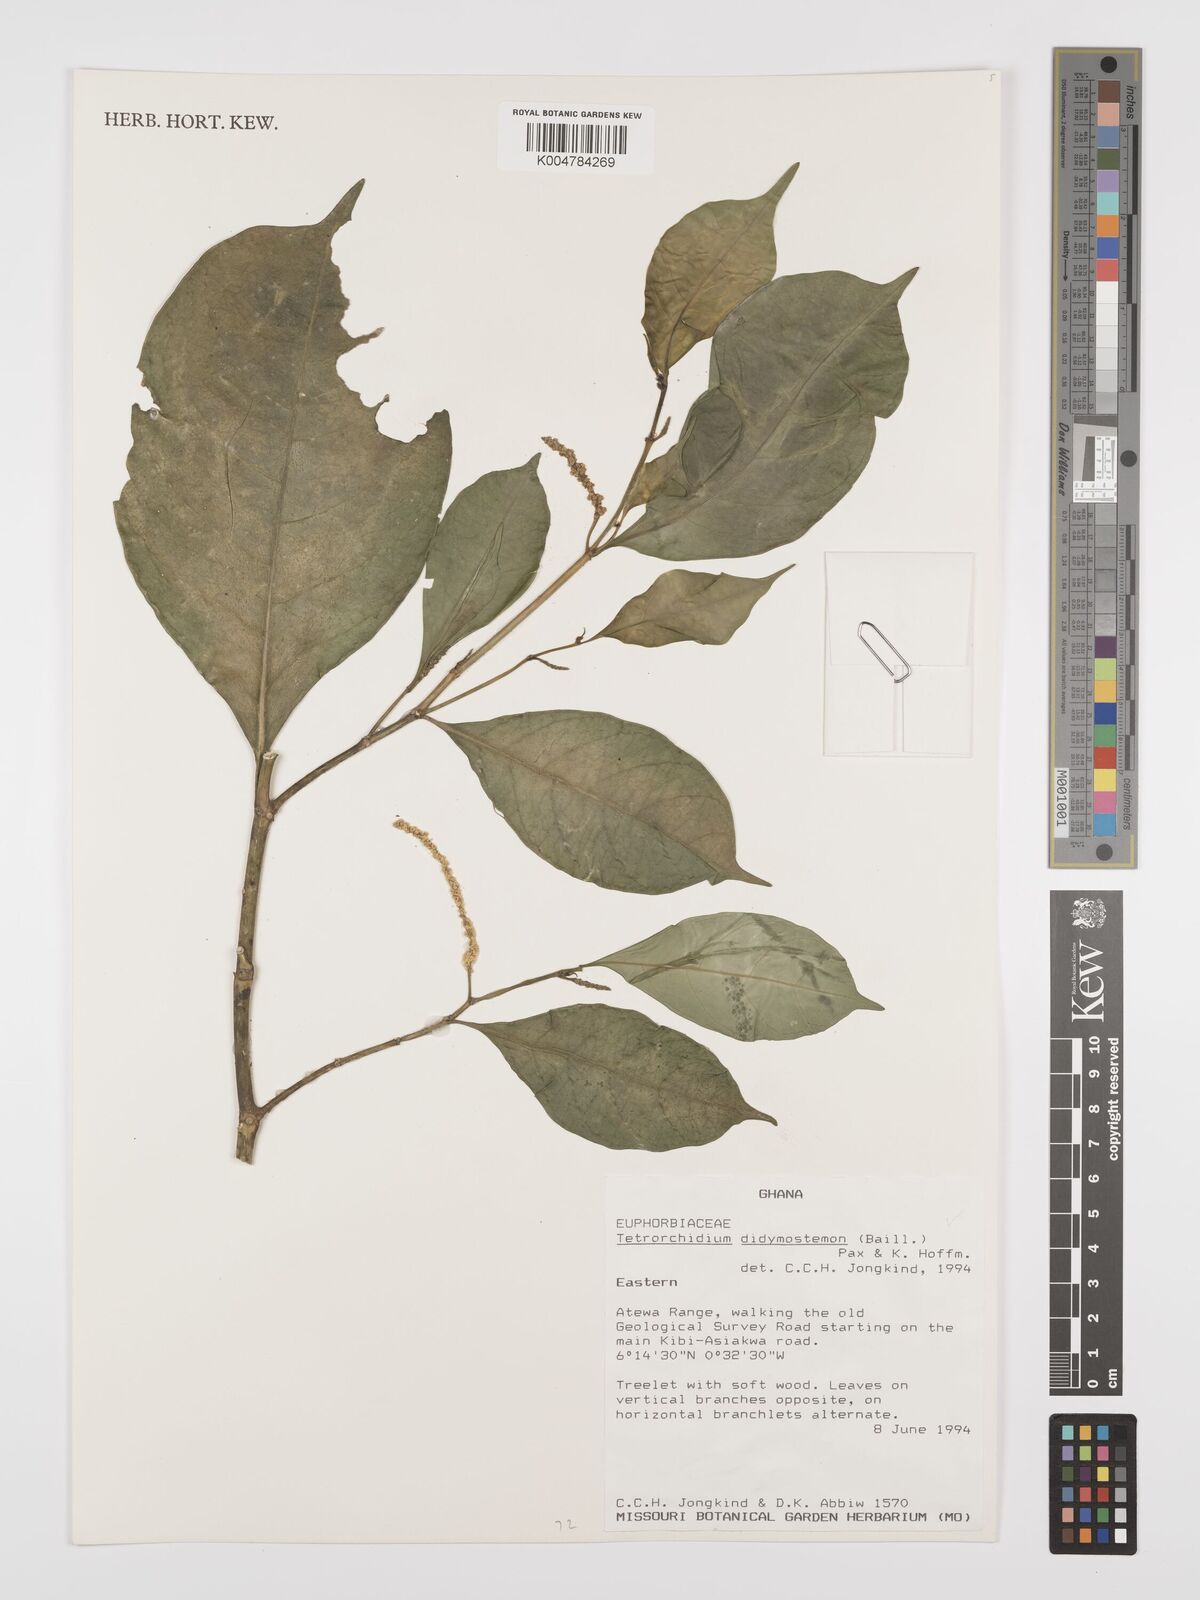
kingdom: Plantae
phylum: Tracheophyta
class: Magnoliopsida
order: Malpighiales
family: Euphorbiaceae
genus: Tetrorchidium
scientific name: Tetrorchidium didymostemon
